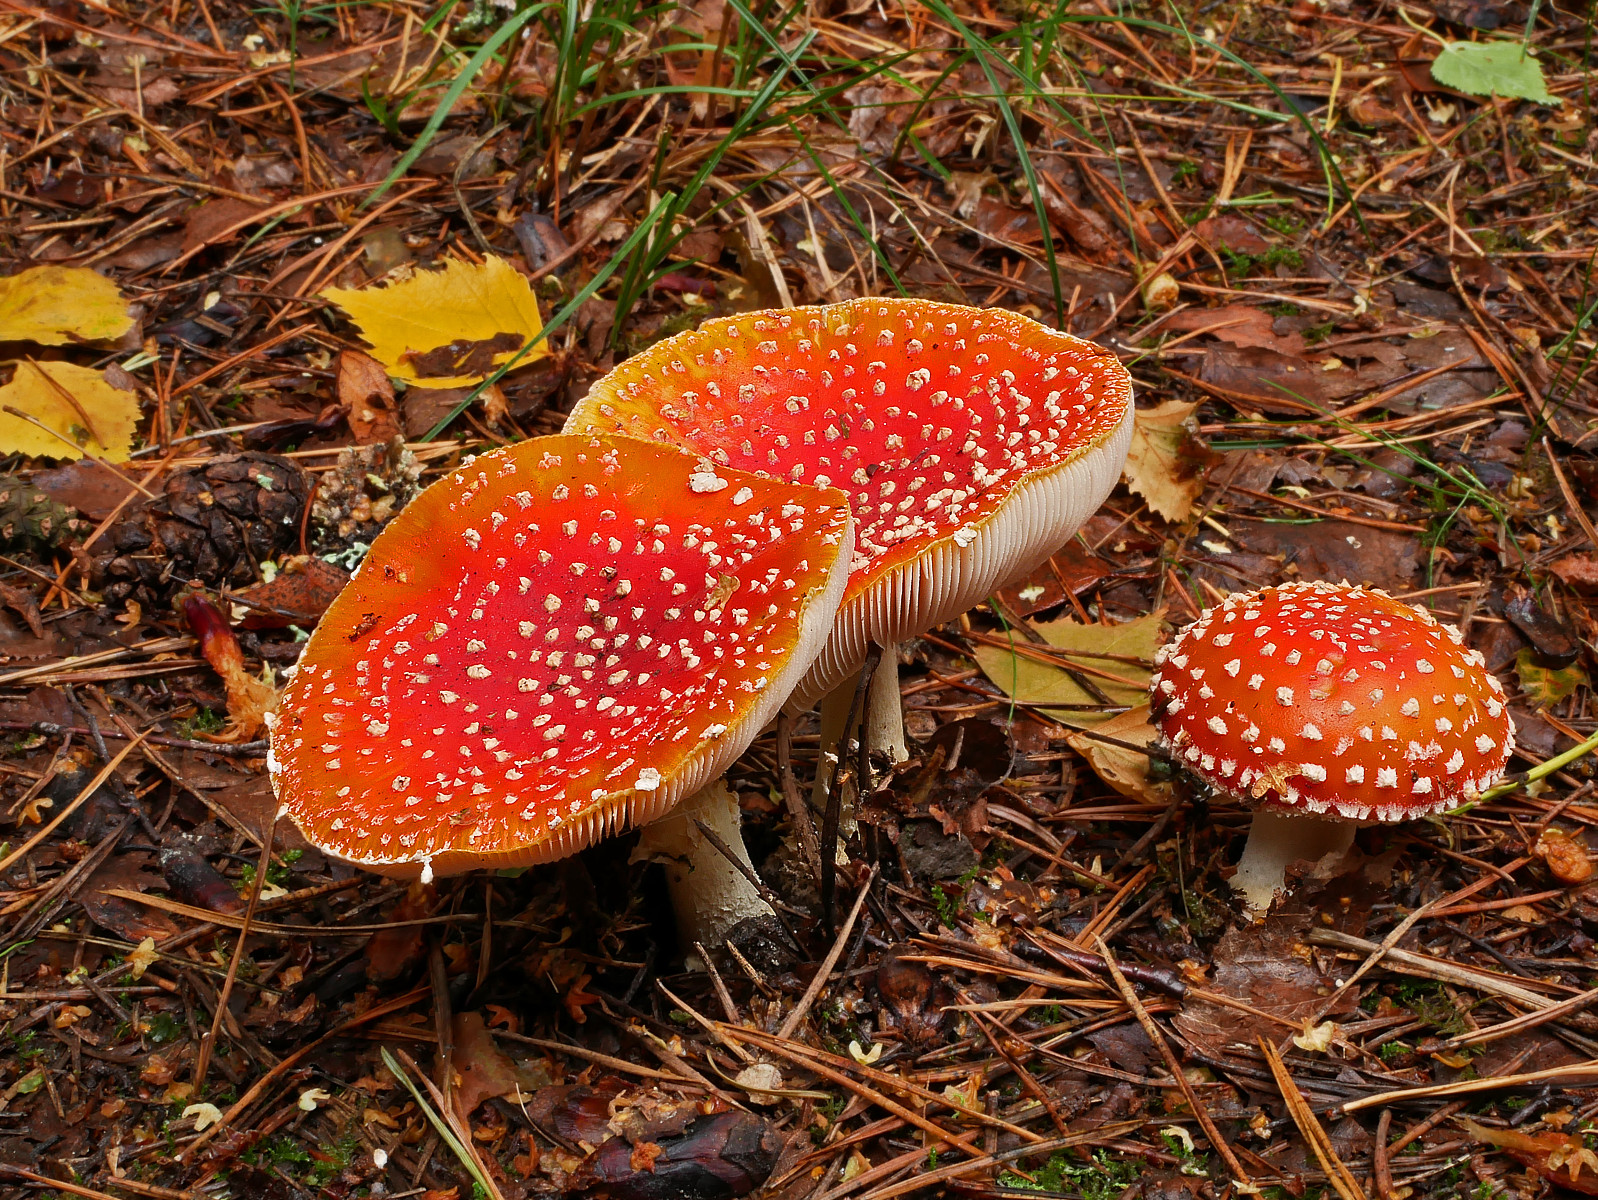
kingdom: Fungi
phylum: Basidiomycota
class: Agaricomycetes
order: Agaricales
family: Amanitaceae
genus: Amanita
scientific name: Amanita muscaria
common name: rød fluesvamp
